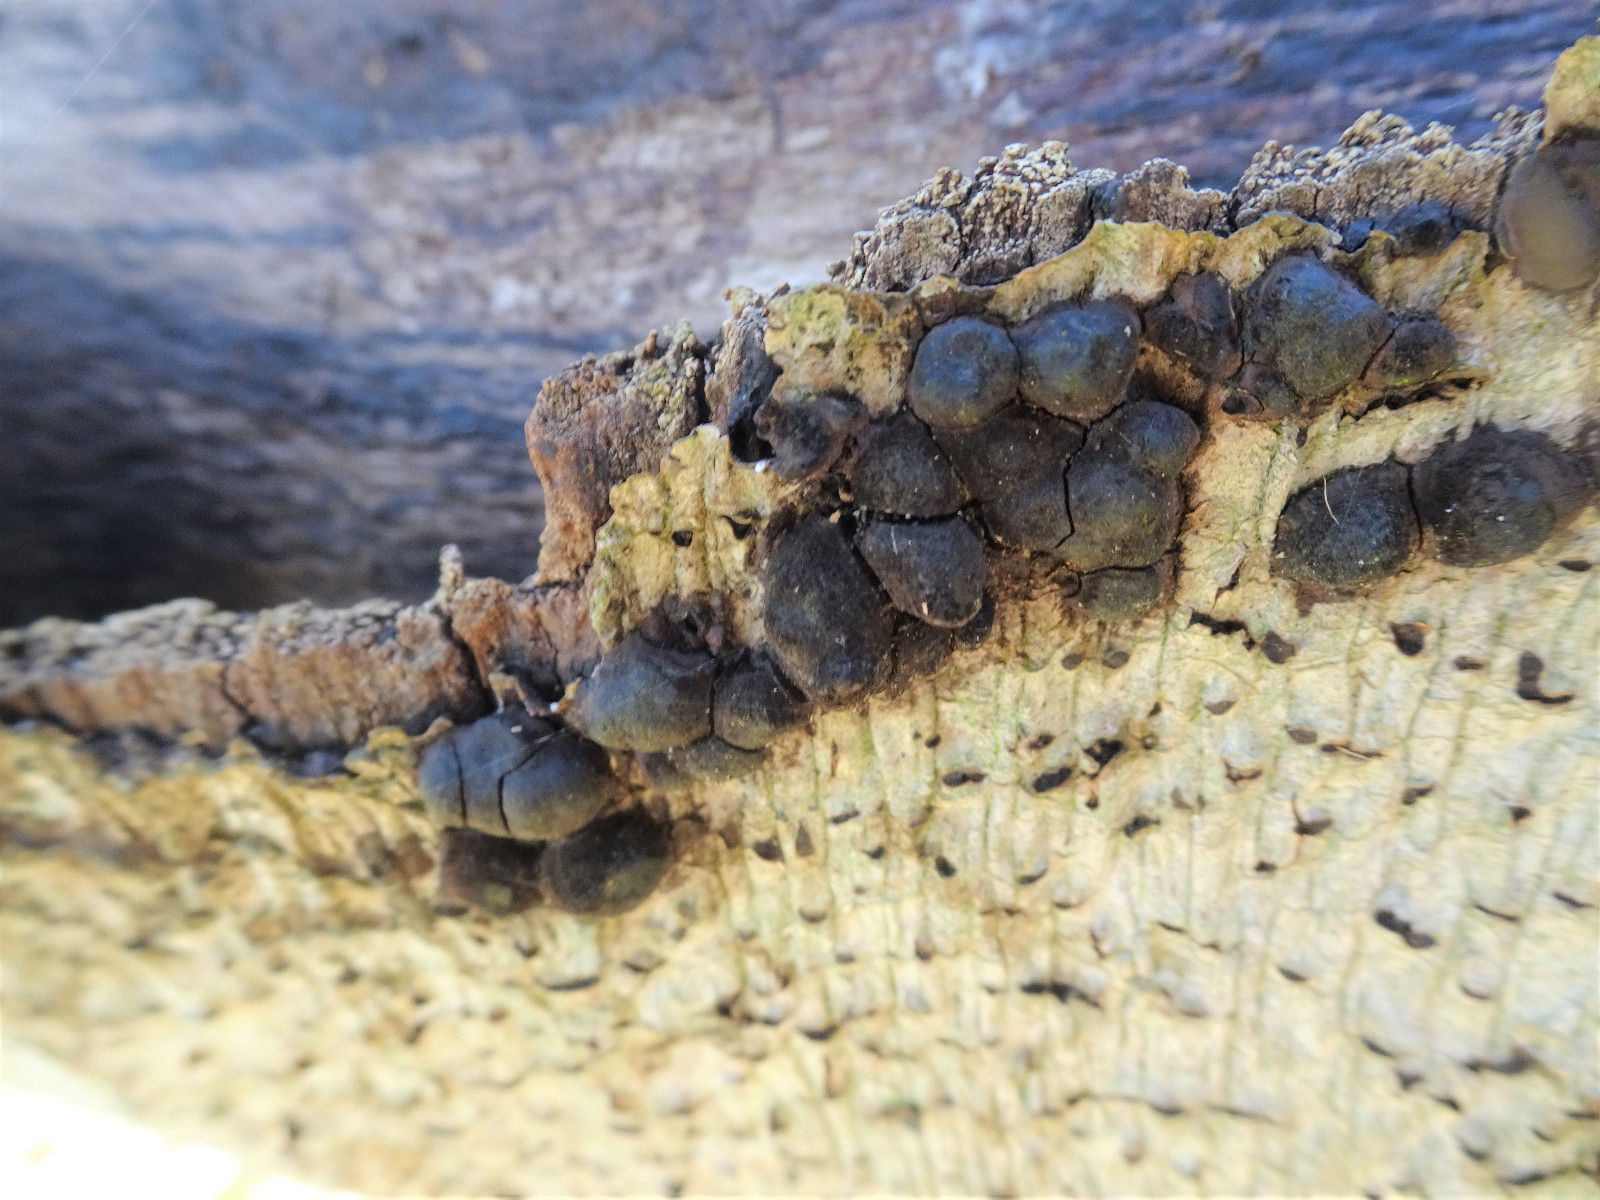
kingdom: Fungi
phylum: Ascomycota
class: Sordariomycetes
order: Xylariales
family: Hypoxylaceae
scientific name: Hypoxylaceae
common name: kulbærfamilien
